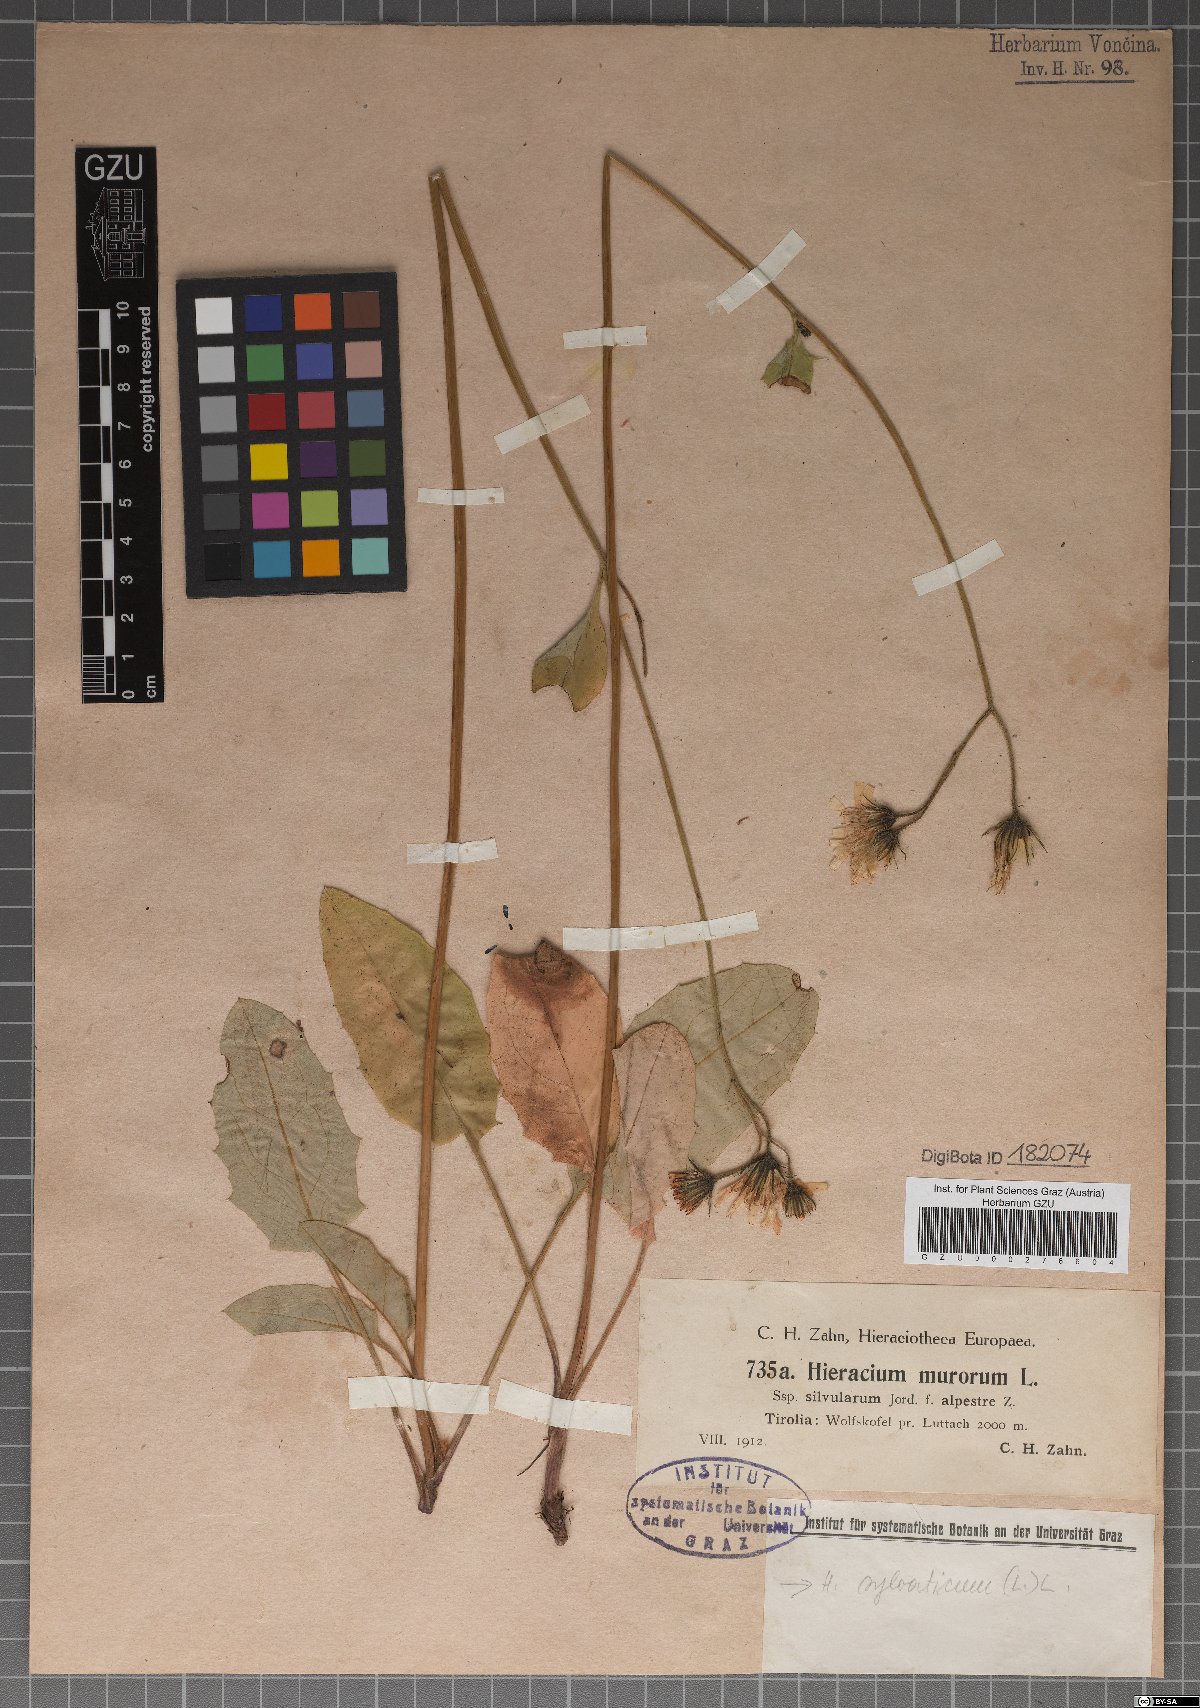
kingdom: Plantae
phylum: Tracheophyta
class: Magnoliopsida
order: Asterales
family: Asteraceae
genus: Hieracium
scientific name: Hieracium murorum
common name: Wall hawkweed
